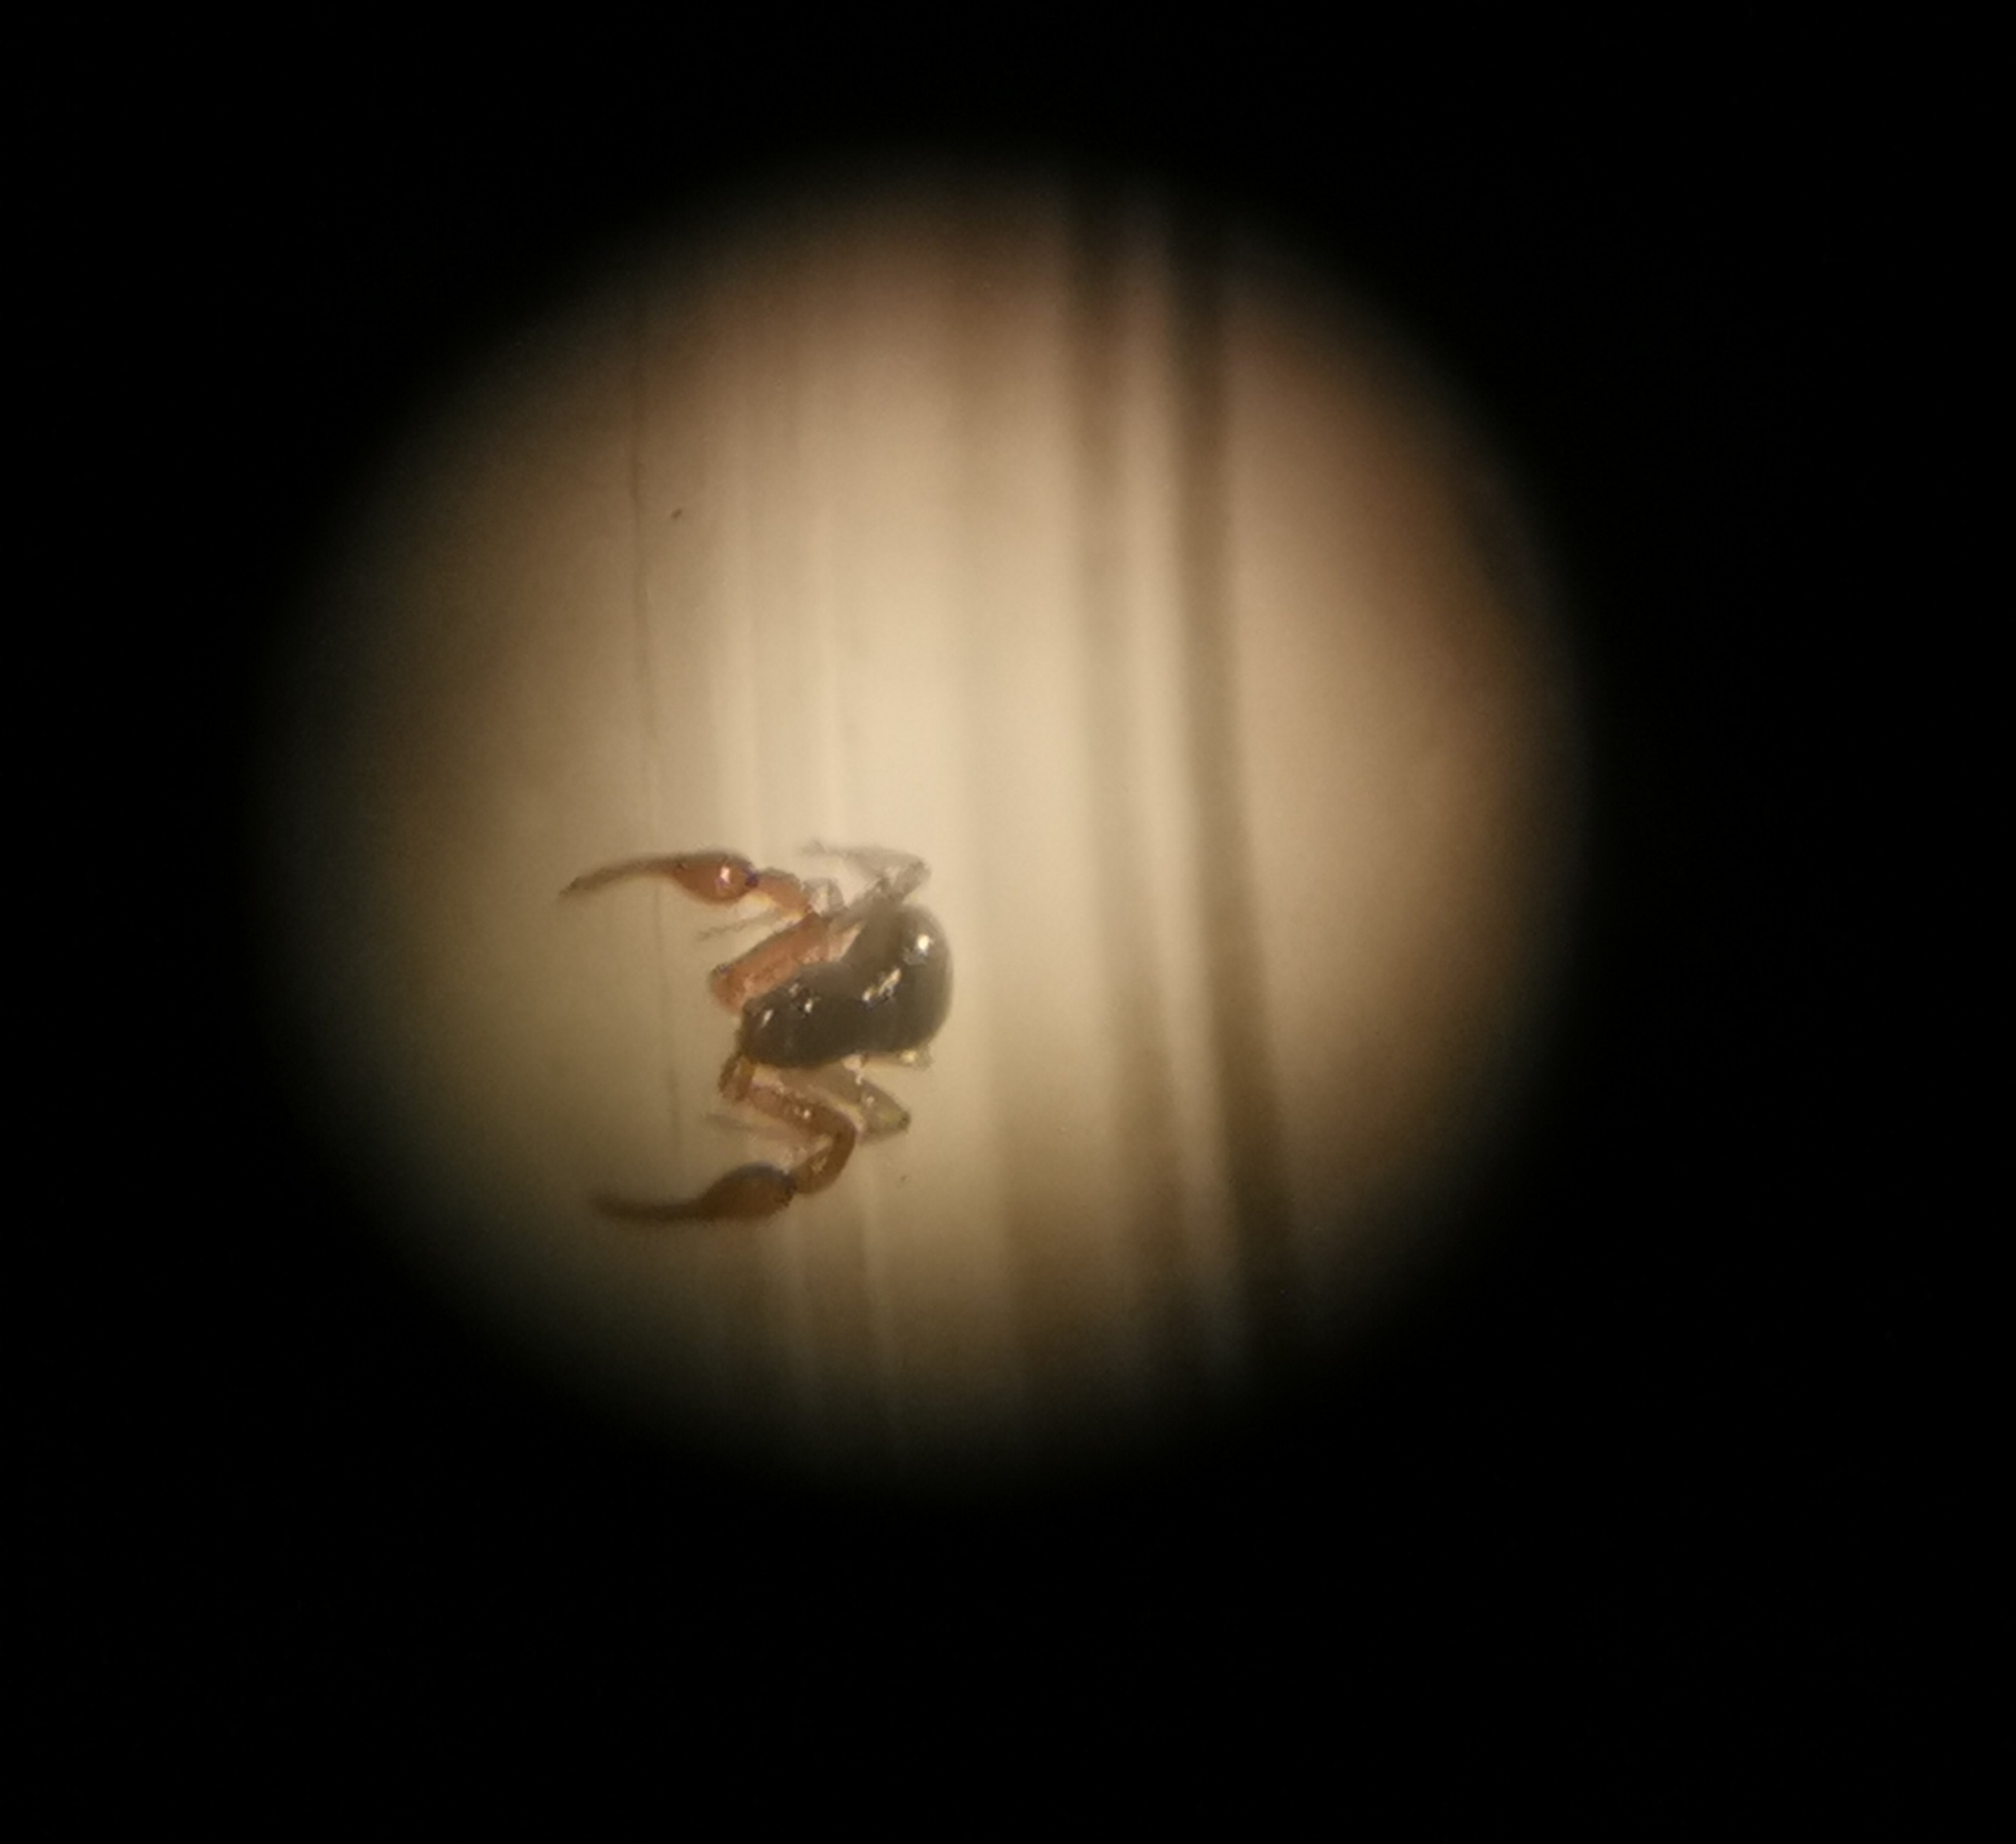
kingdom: Animalia
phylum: Arthropoda
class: Arachnida
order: Pseudoscorpiones
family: Neobisiidae
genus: Neobisium
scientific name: Neobisium carcinoides
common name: Almindelig mosskorpion
